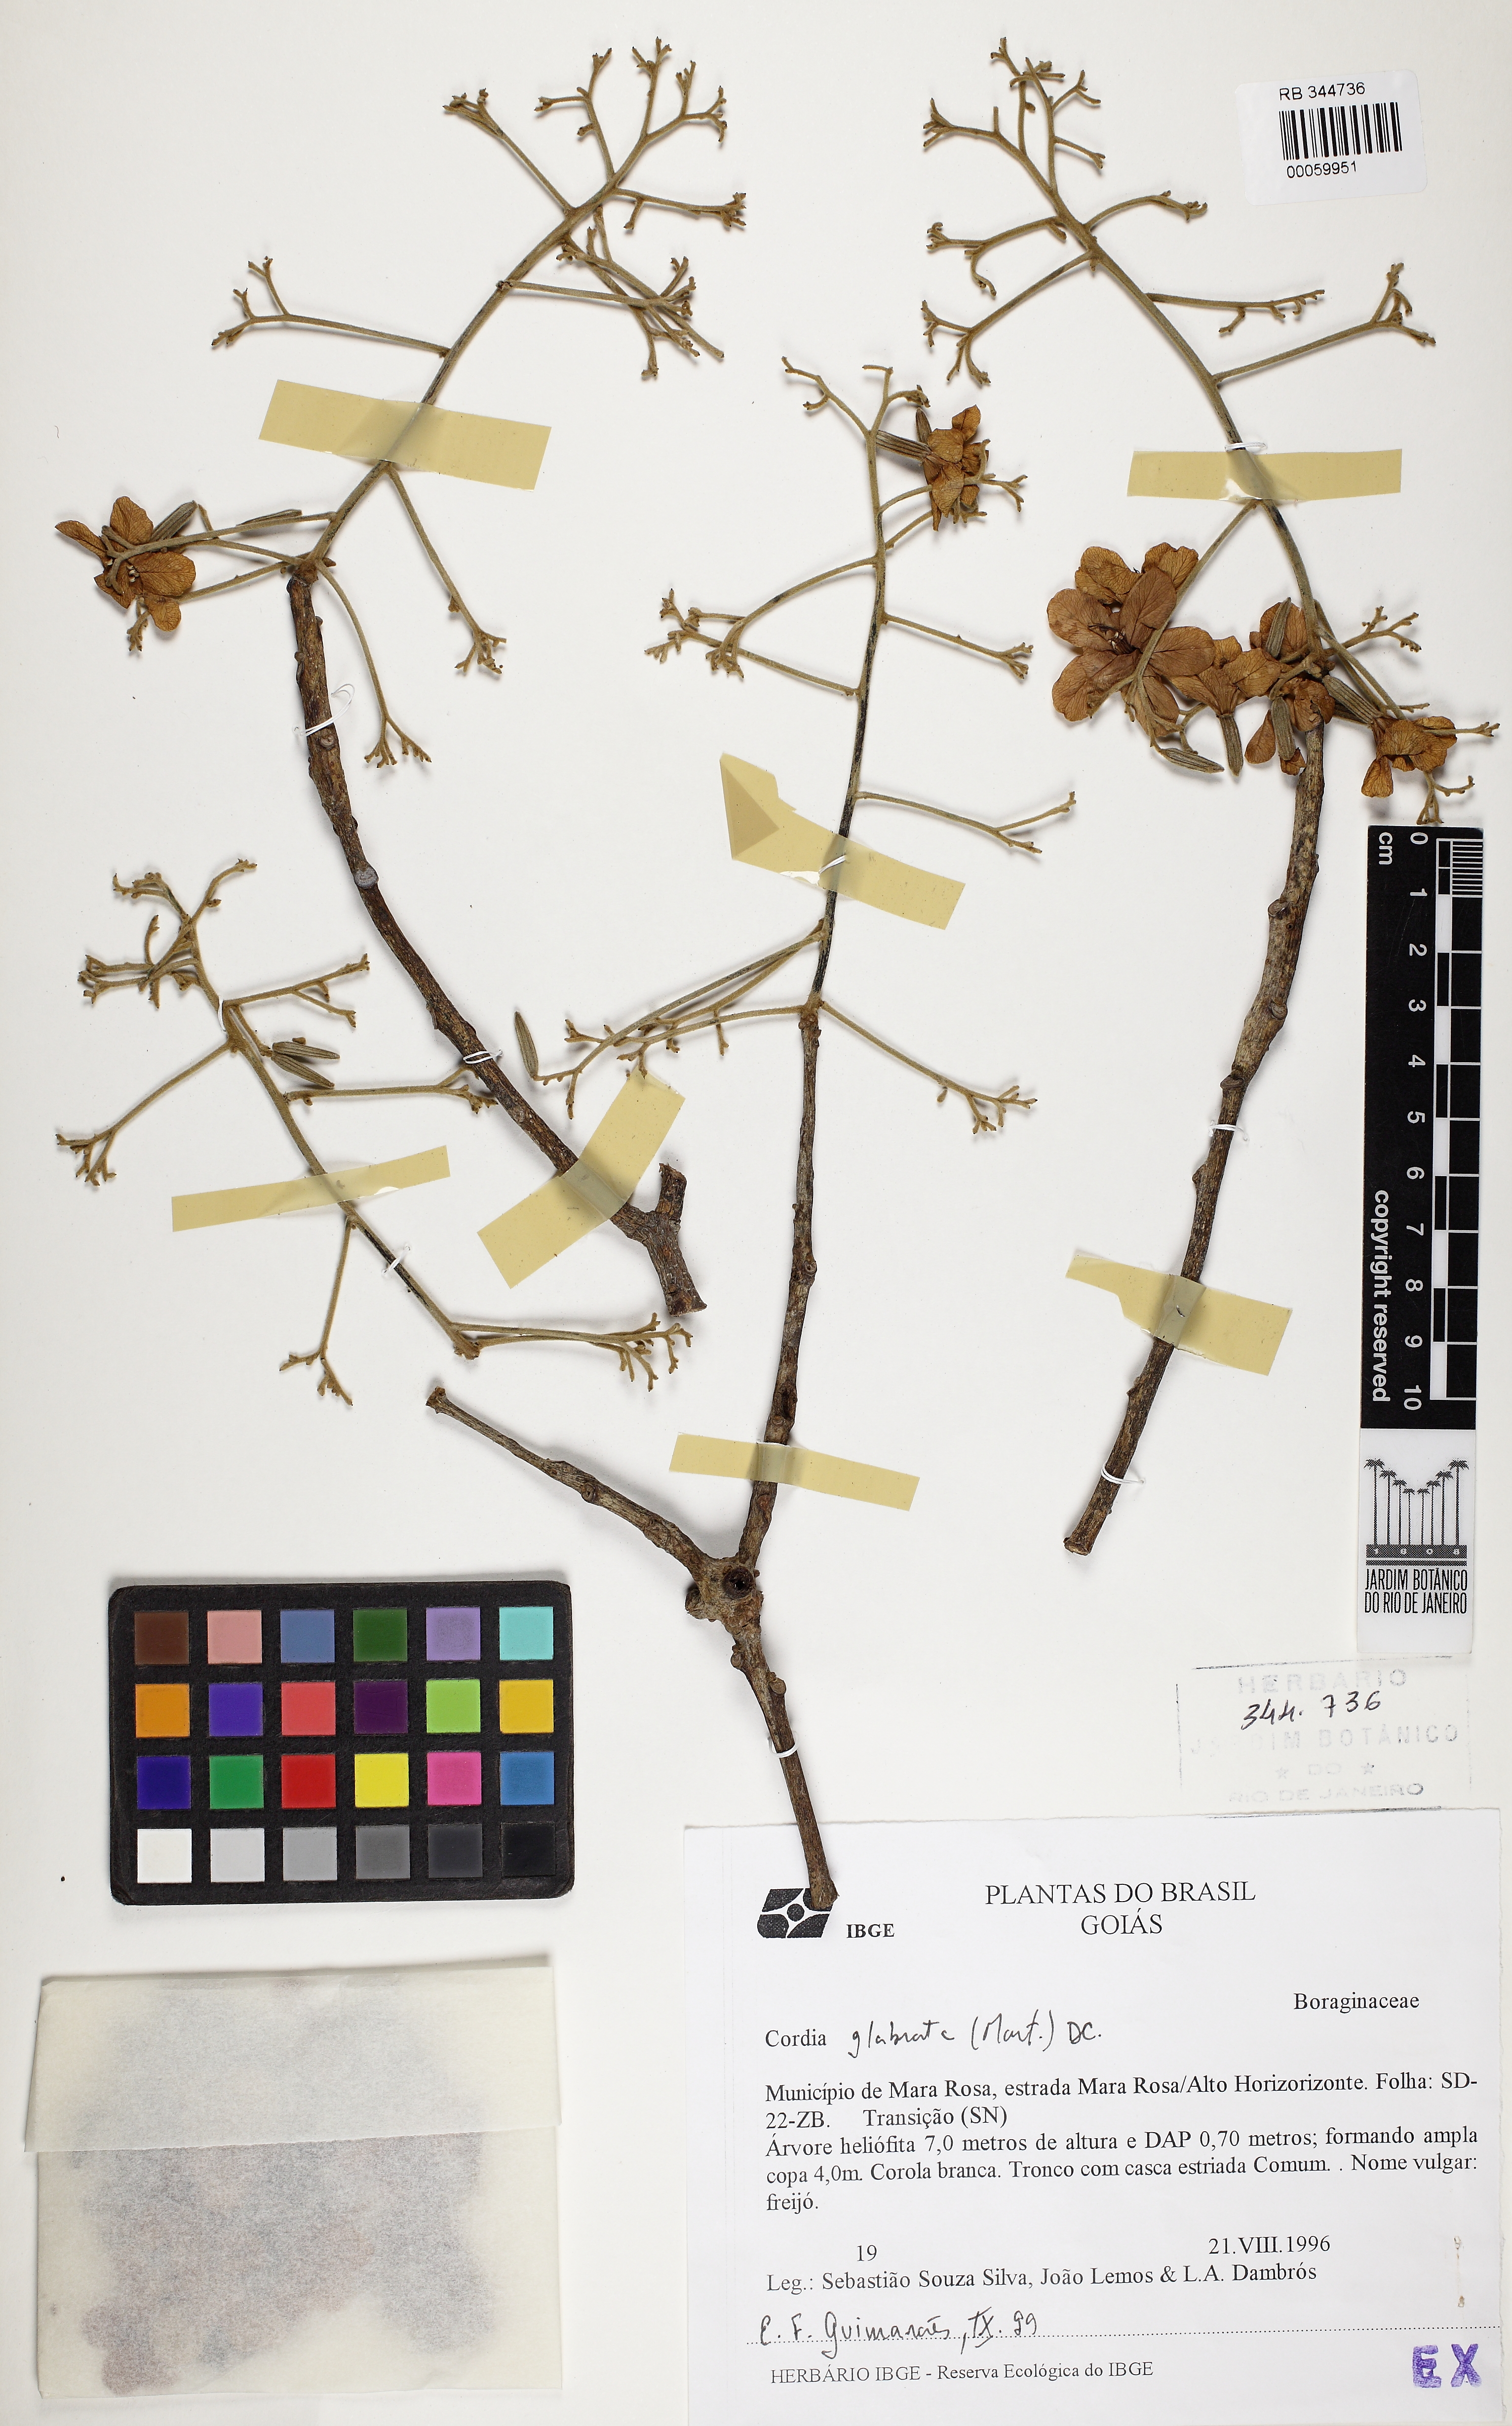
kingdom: Plantae
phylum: Tracheophyta
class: Magnoliopsida
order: Boraginales
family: Cordiaceae
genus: Cordia
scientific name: Cordia glabrata
